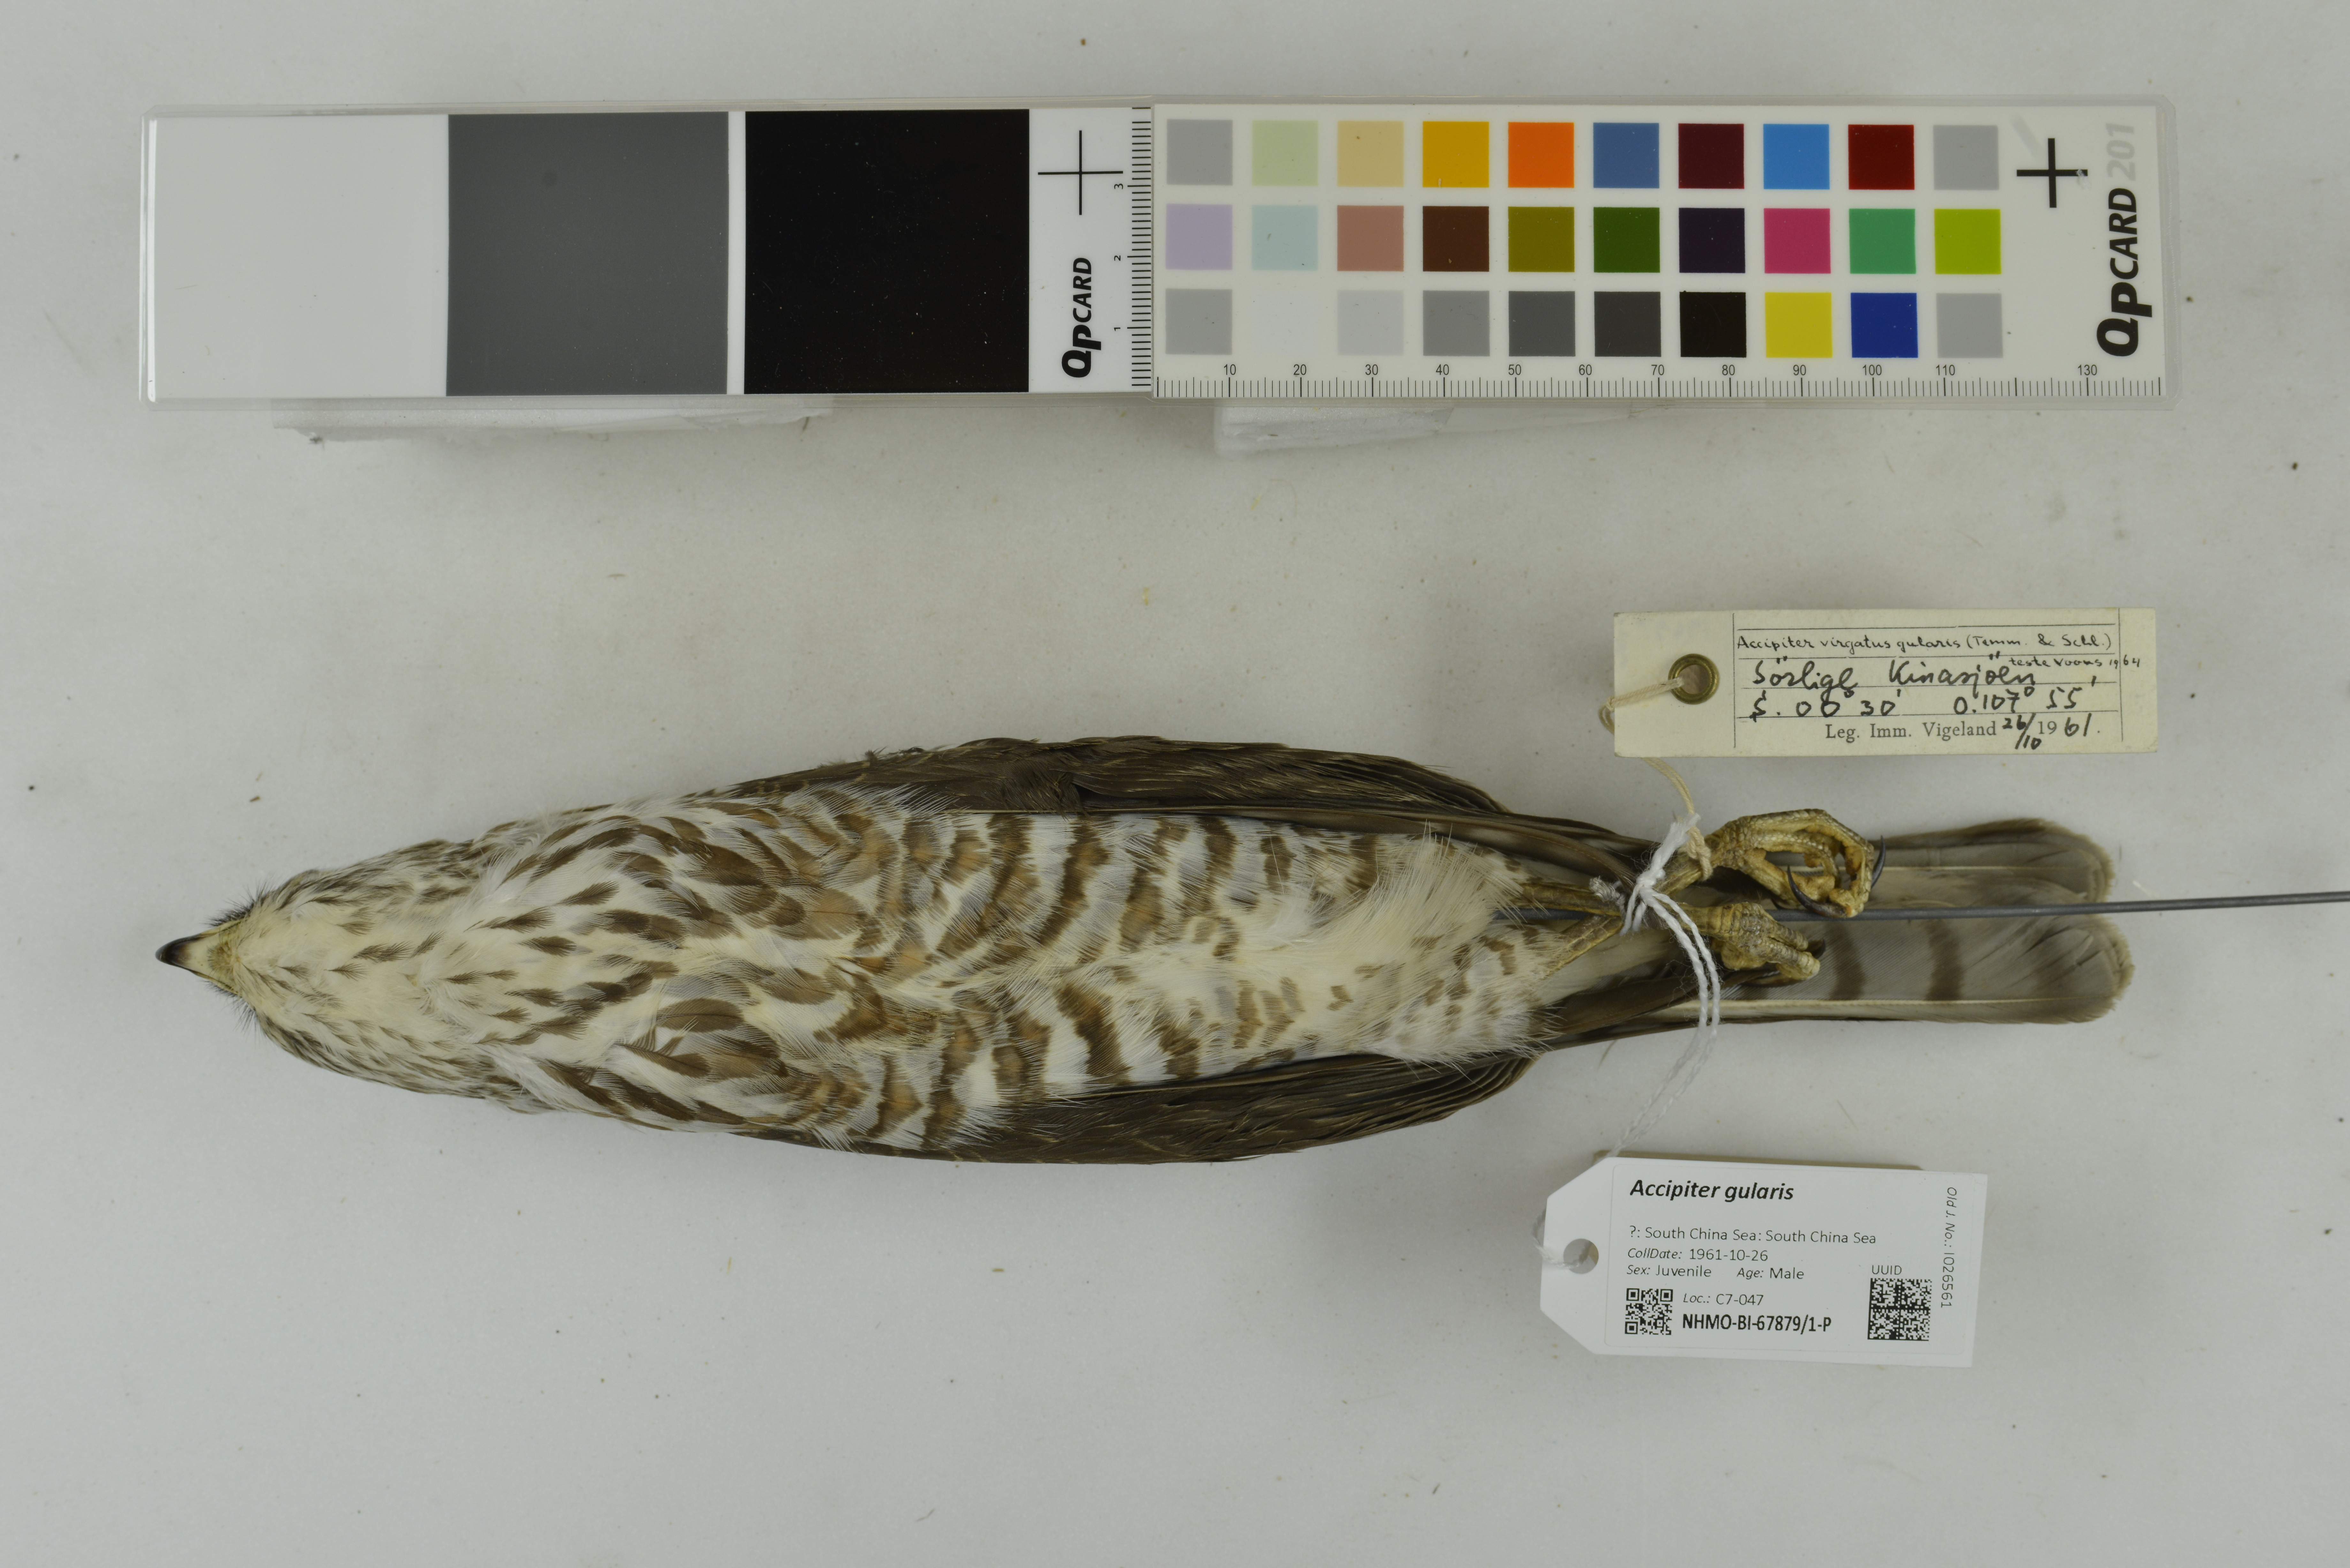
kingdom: Animalia
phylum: Chordata
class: Aves
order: Accipitriformes
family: Accipitridae
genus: Accipiter
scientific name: Accipiter gularis
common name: Japanese sparrowhawk
